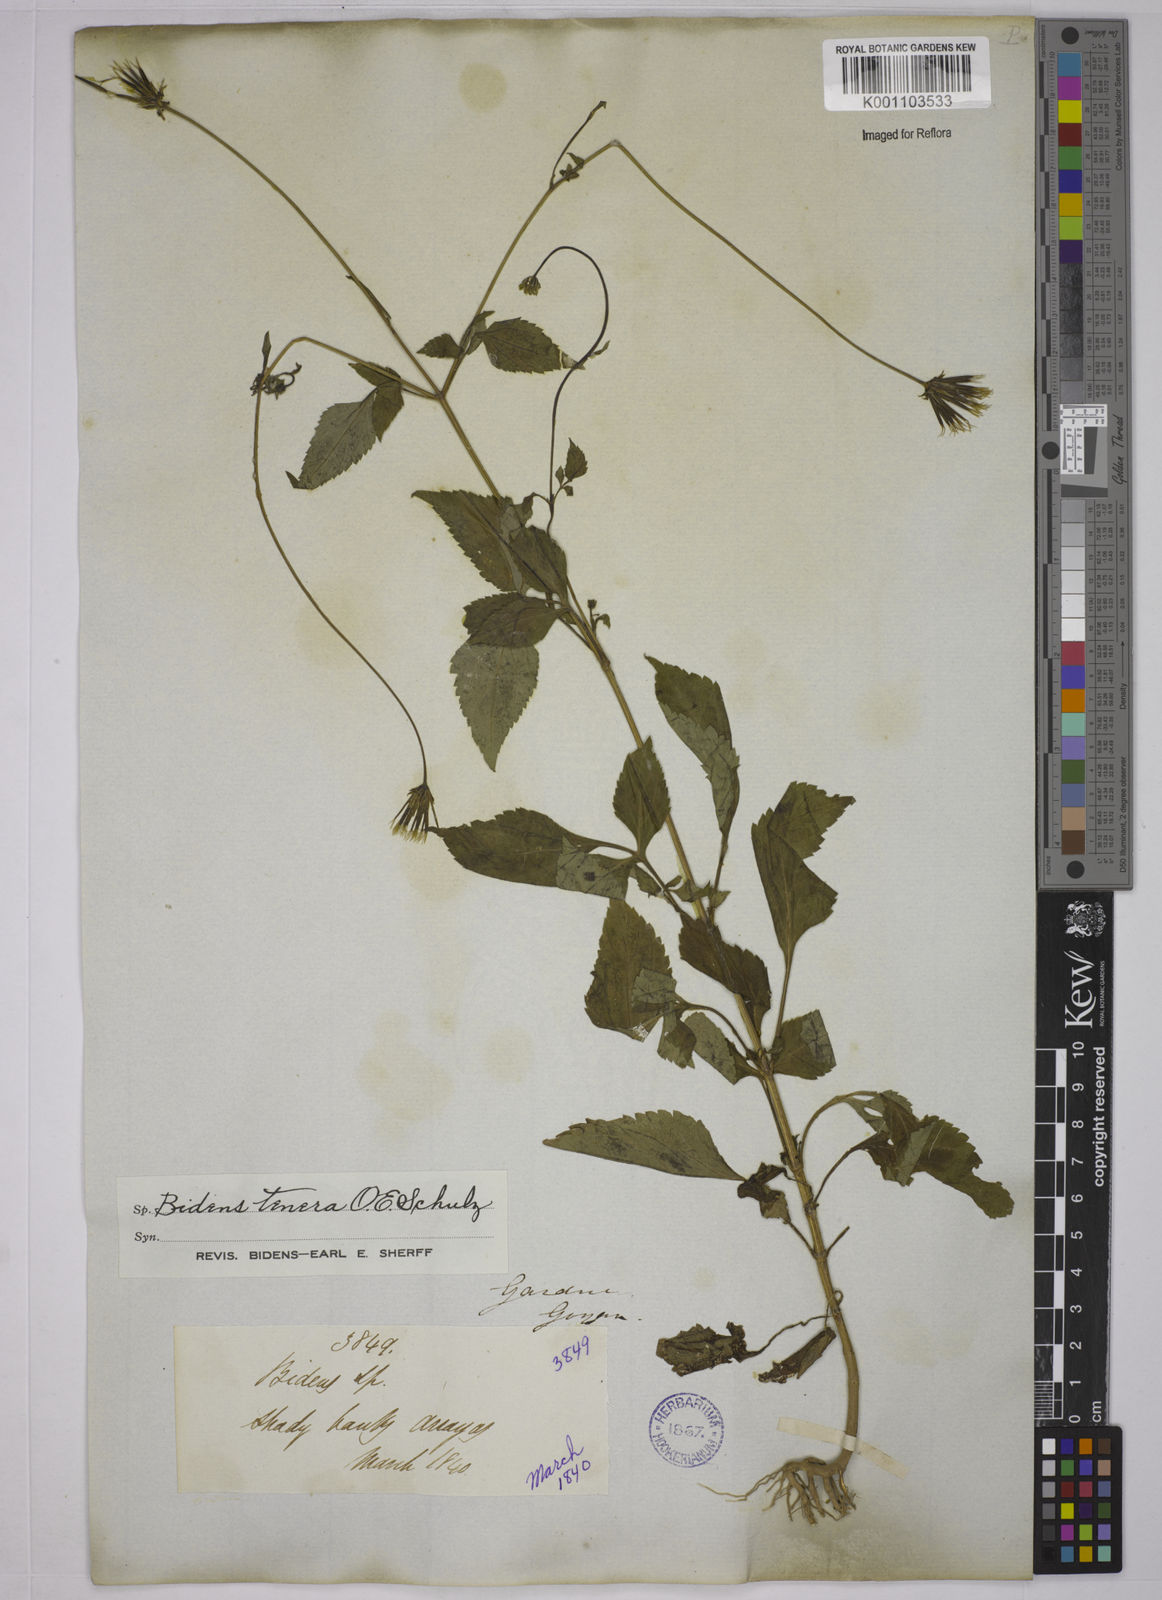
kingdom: Plantae
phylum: Tracheophyta
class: Magnoliopsida
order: Asterales
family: Asteraceae
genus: Bidens
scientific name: Bidens tenera
